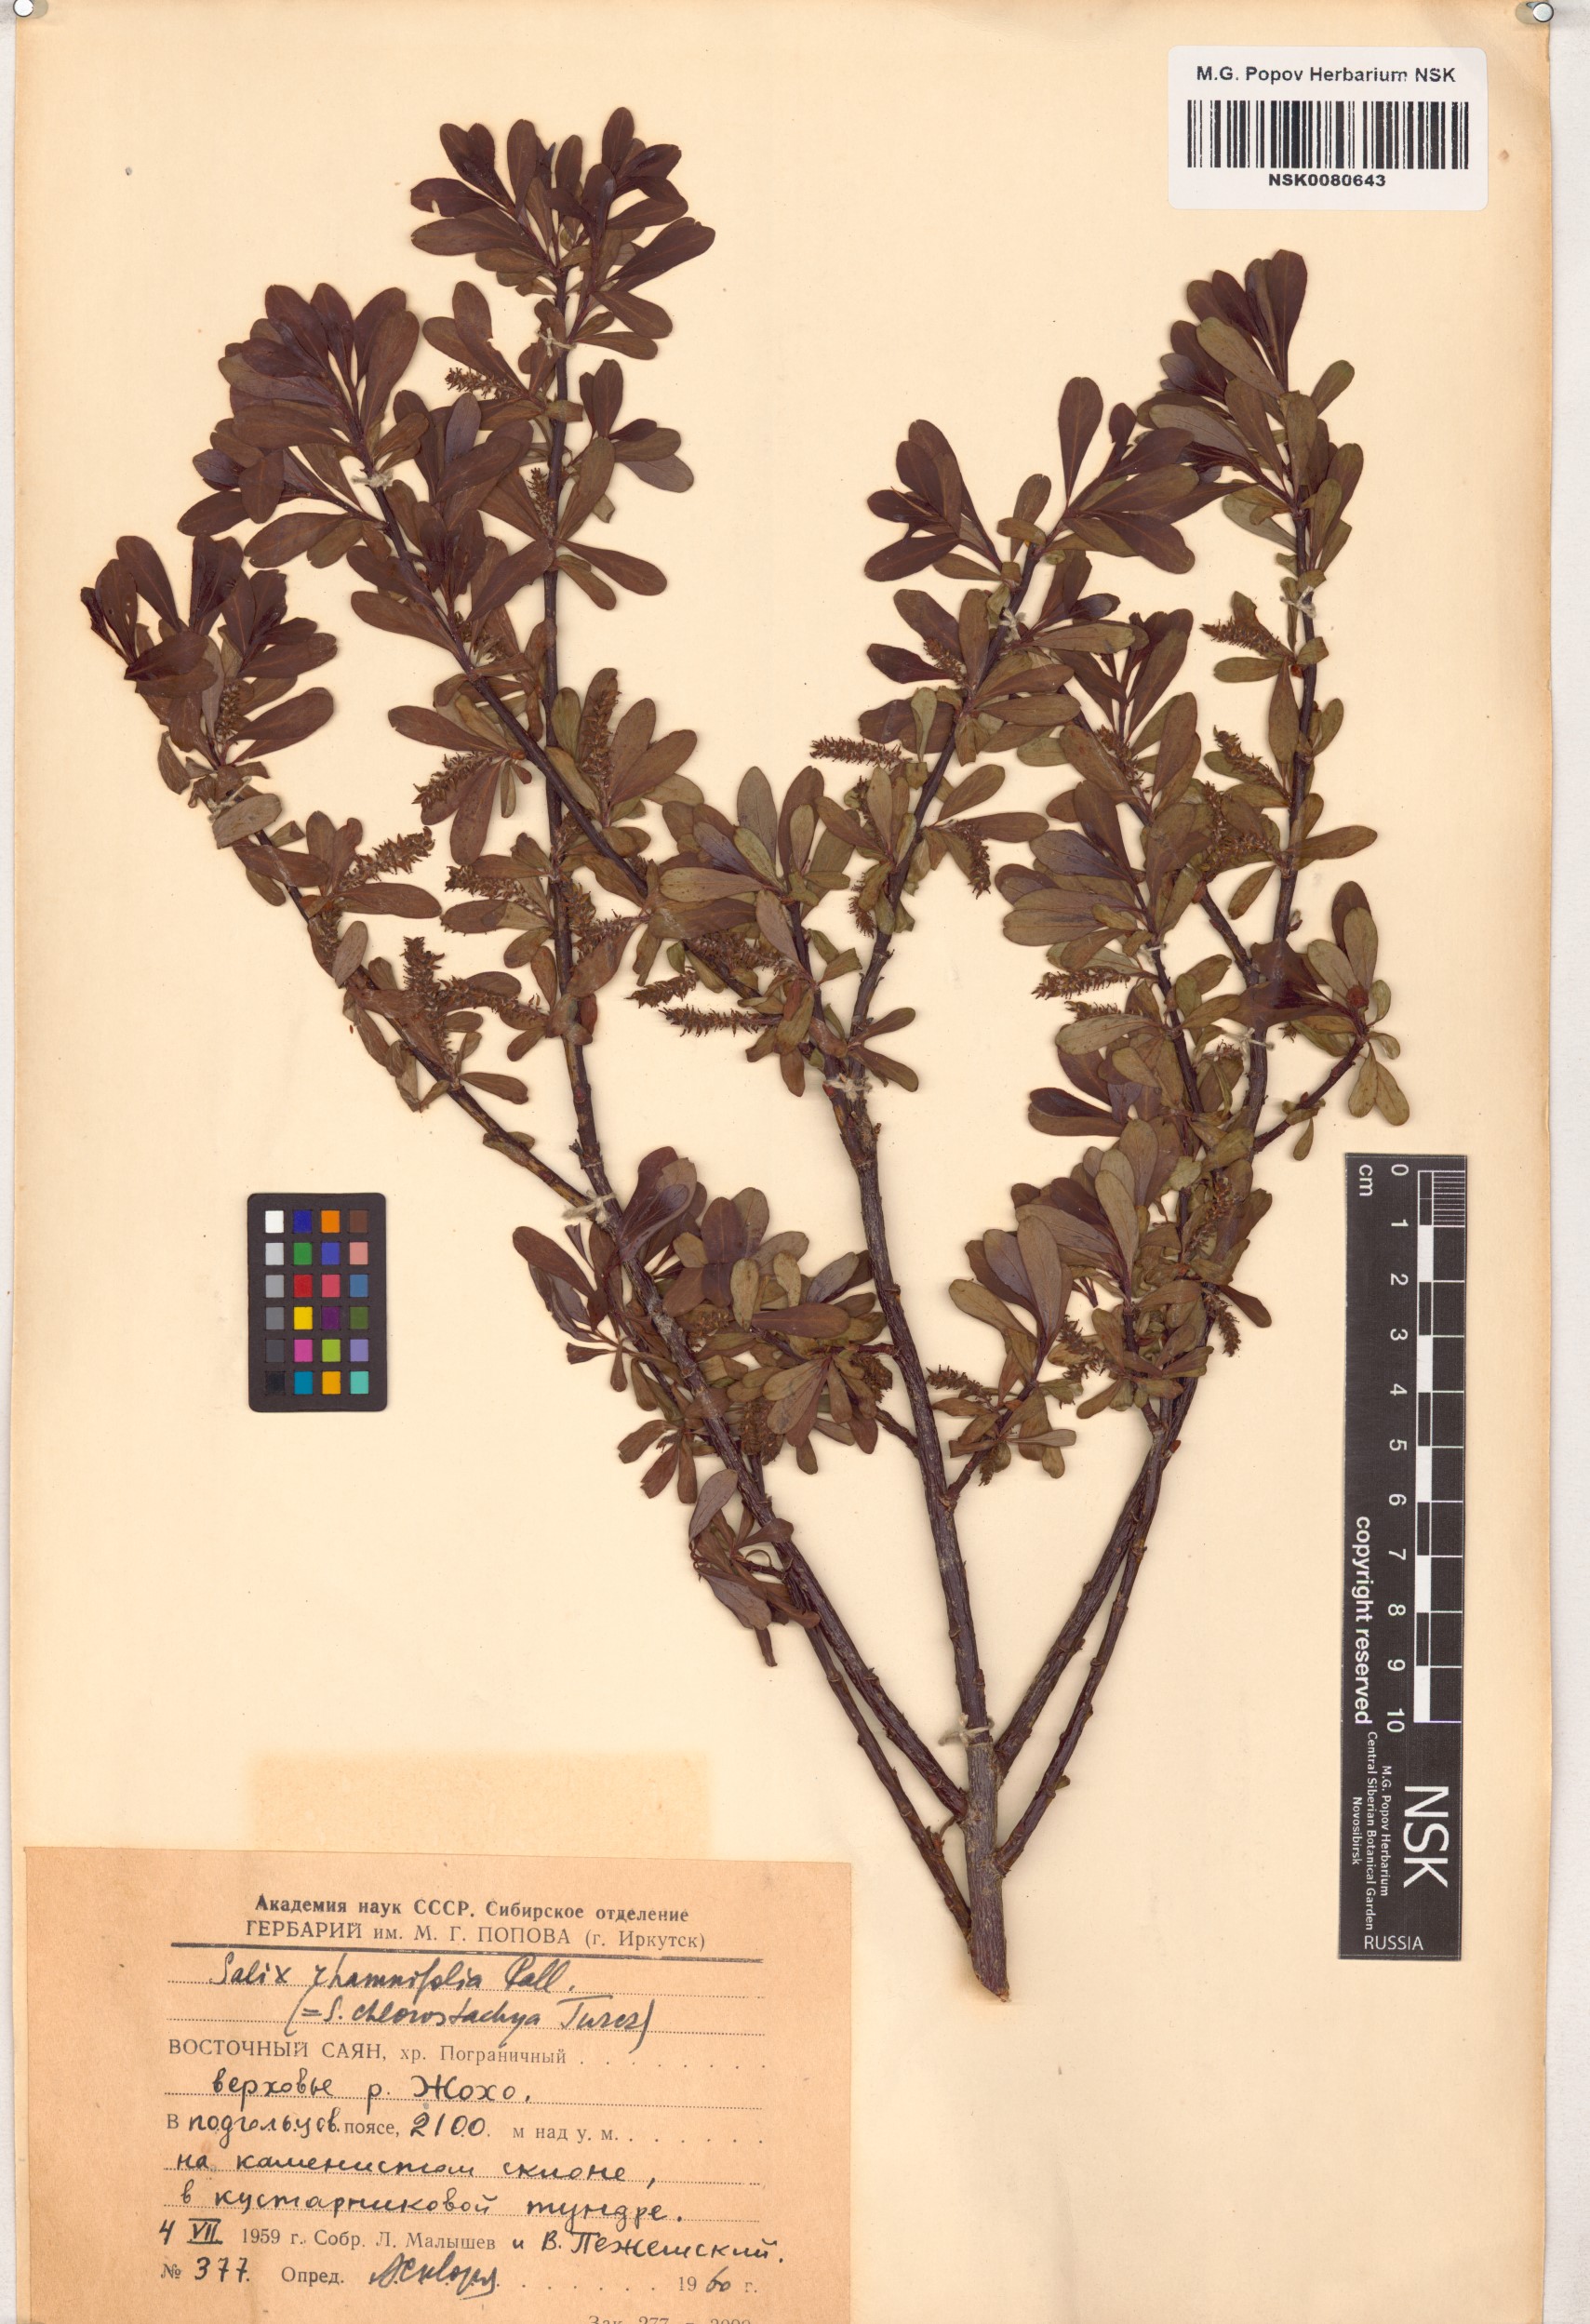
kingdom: Plantae
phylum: Tracheophyta
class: Magnoliopsida
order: Malpighiales
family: Salicaceae
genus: Salix
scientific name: Salix rhamnifolia
